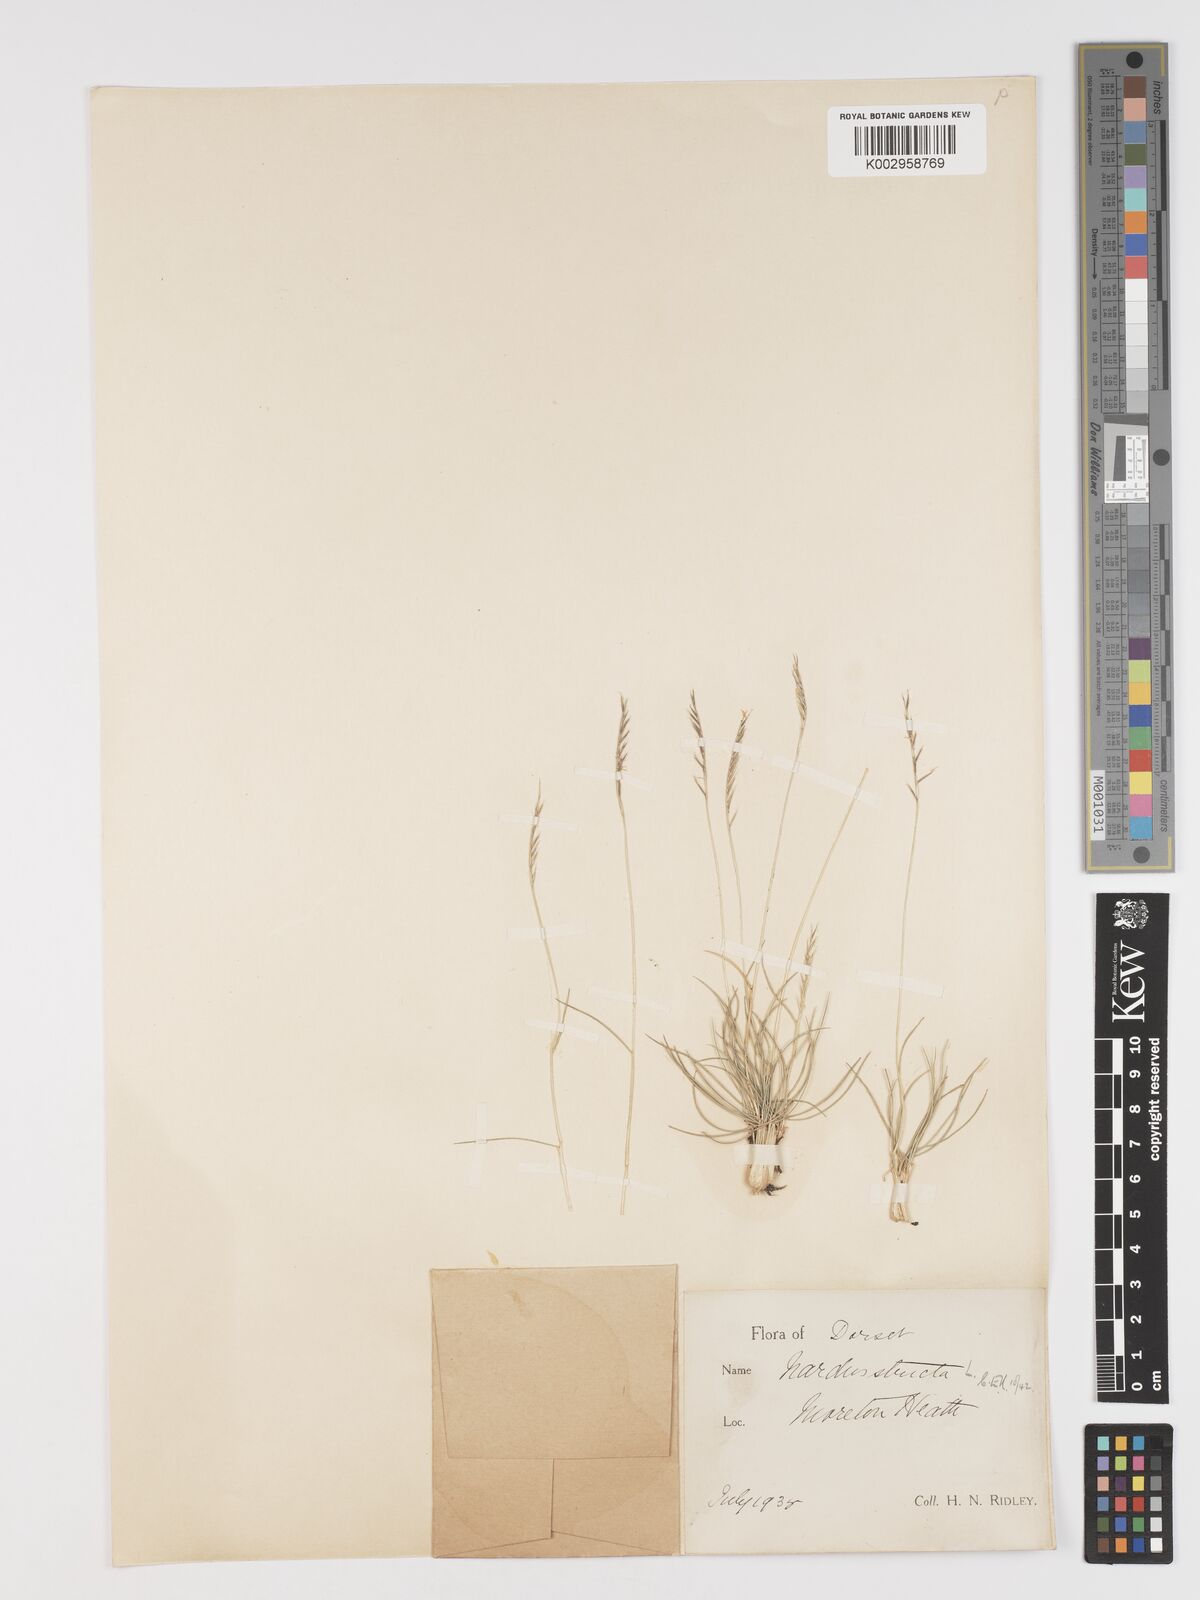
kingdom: Plantae
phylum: Tracheophyta
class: Liliopsida
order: Poales
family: Poaceae
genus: Nardus
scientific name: Nardus stricta
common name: Mat-grass
